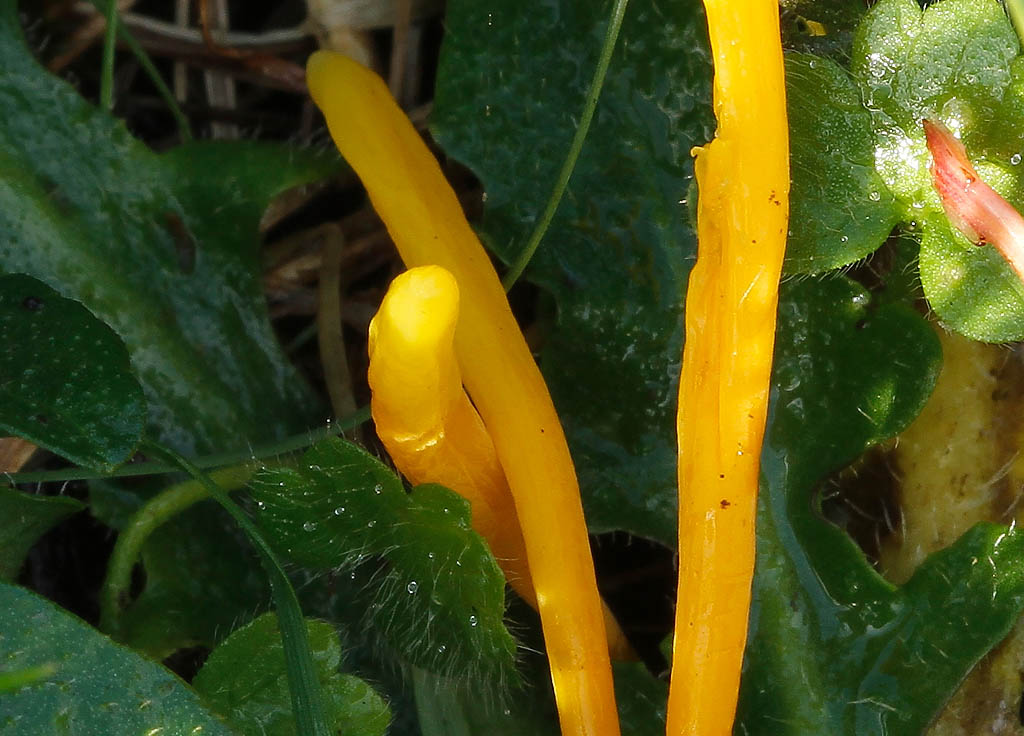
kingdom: Fungi
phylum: Basidiomycota
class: Agaricomycetes
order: Agaricales
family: Clavariaceae
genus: Clavulinopsis
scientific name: Clavulinopsis laeticolor
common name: flamme-køllesvamp
